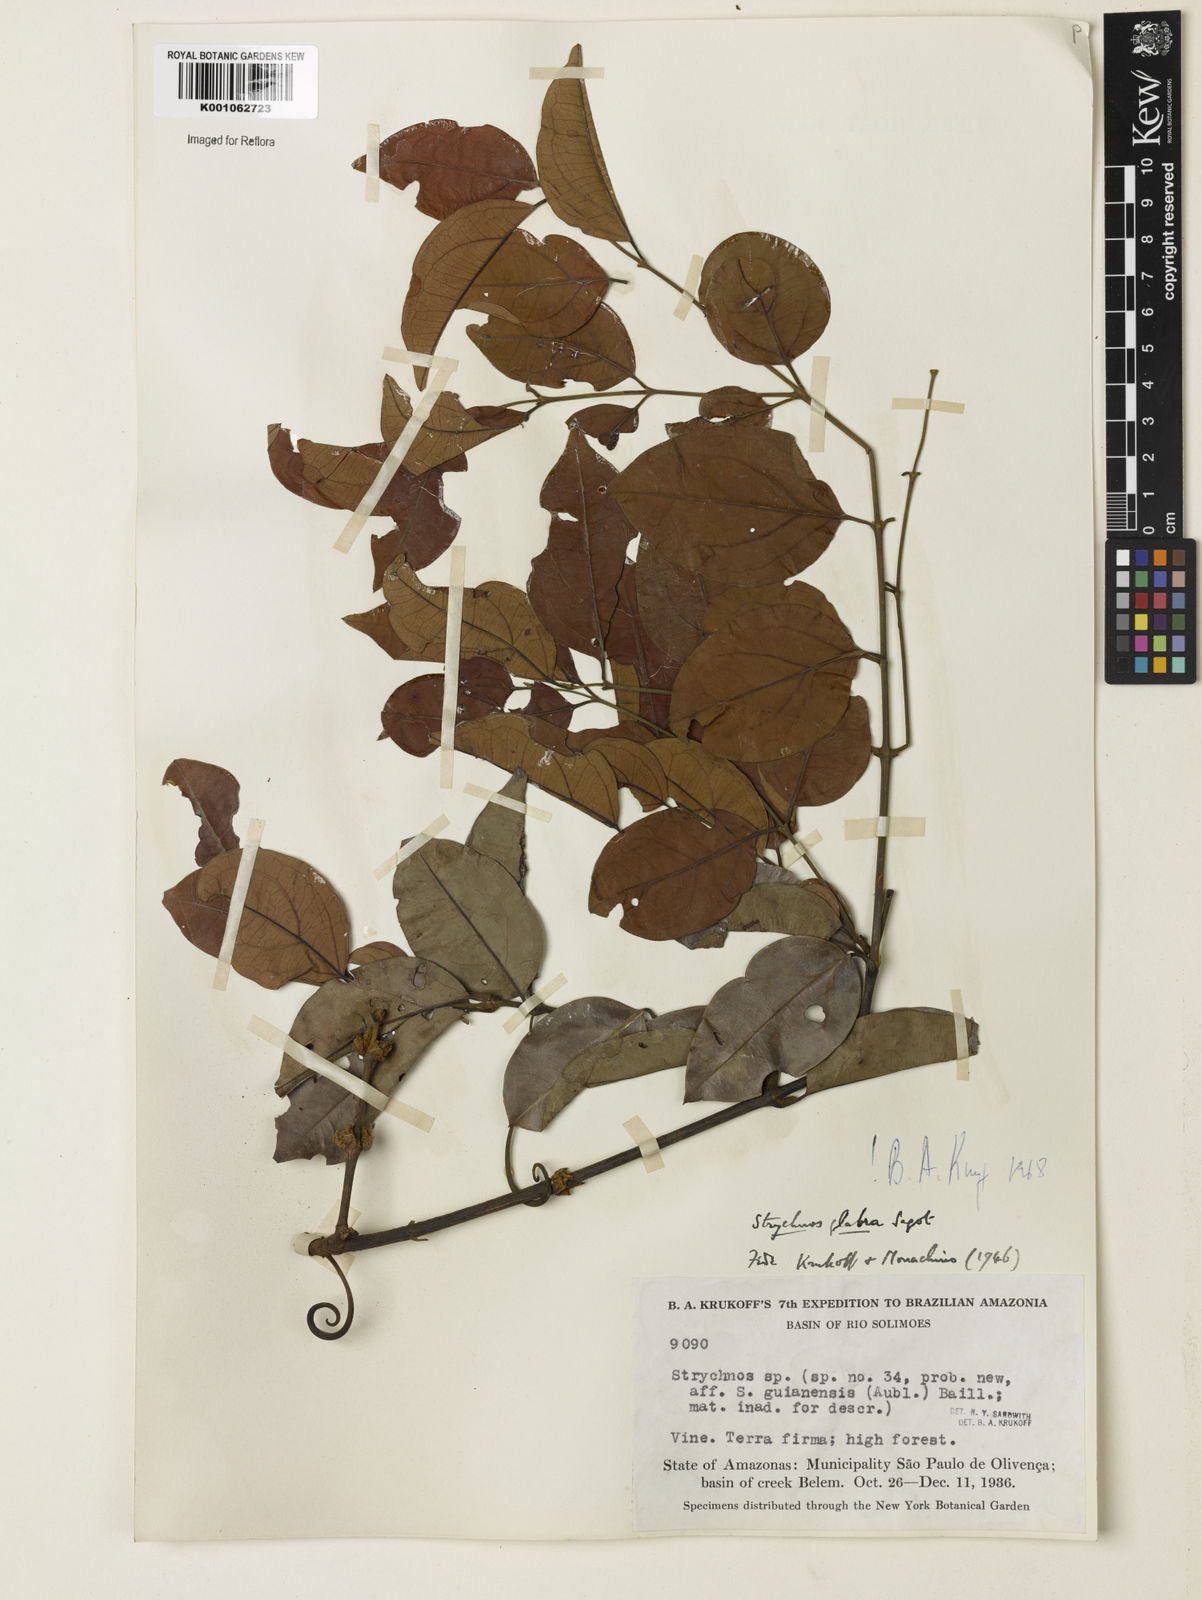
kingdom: Plantae
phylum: Tracheophyta
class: Magnoliopsida
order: Gentianales
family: Loganiaceae
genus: Strychnos
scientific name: Strychnos glabra
